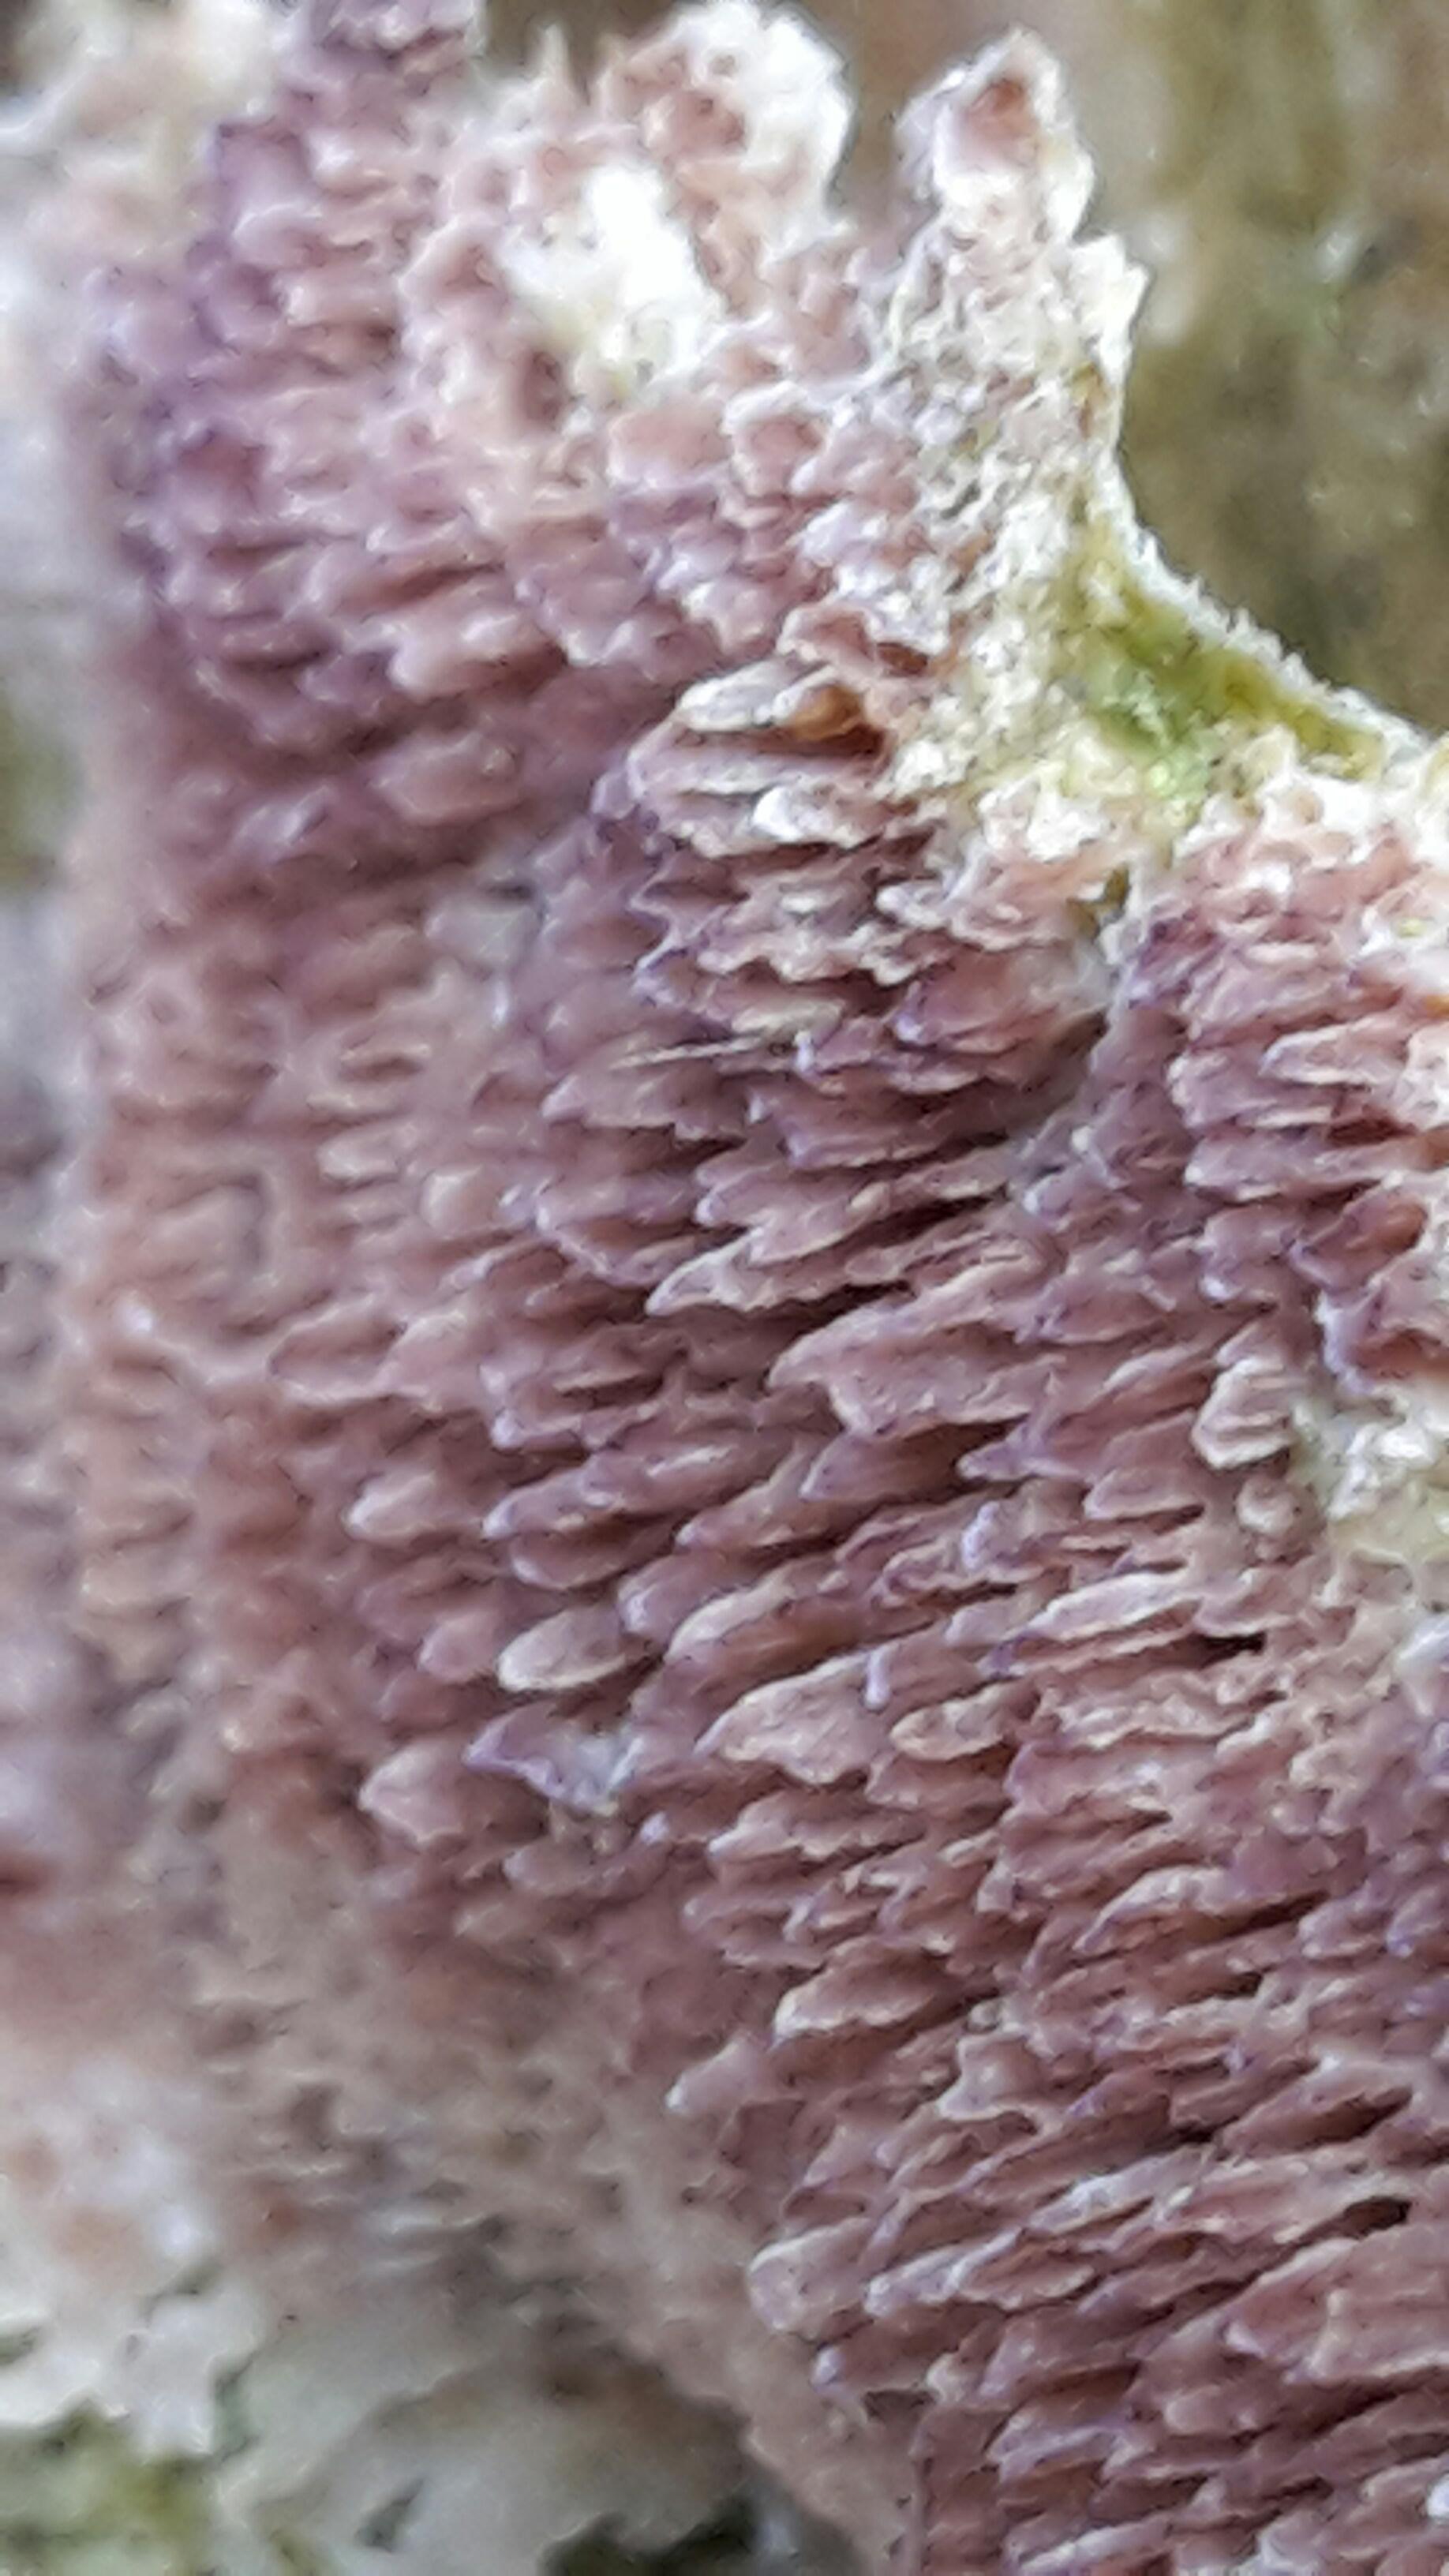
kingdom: Fungi
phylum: Basidiomycota
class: Agaricomycetes
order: Hymenochaetales
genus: Trichaptum
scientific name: Trichaptum fuscoviolaceum
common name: tandet violporesvamp
